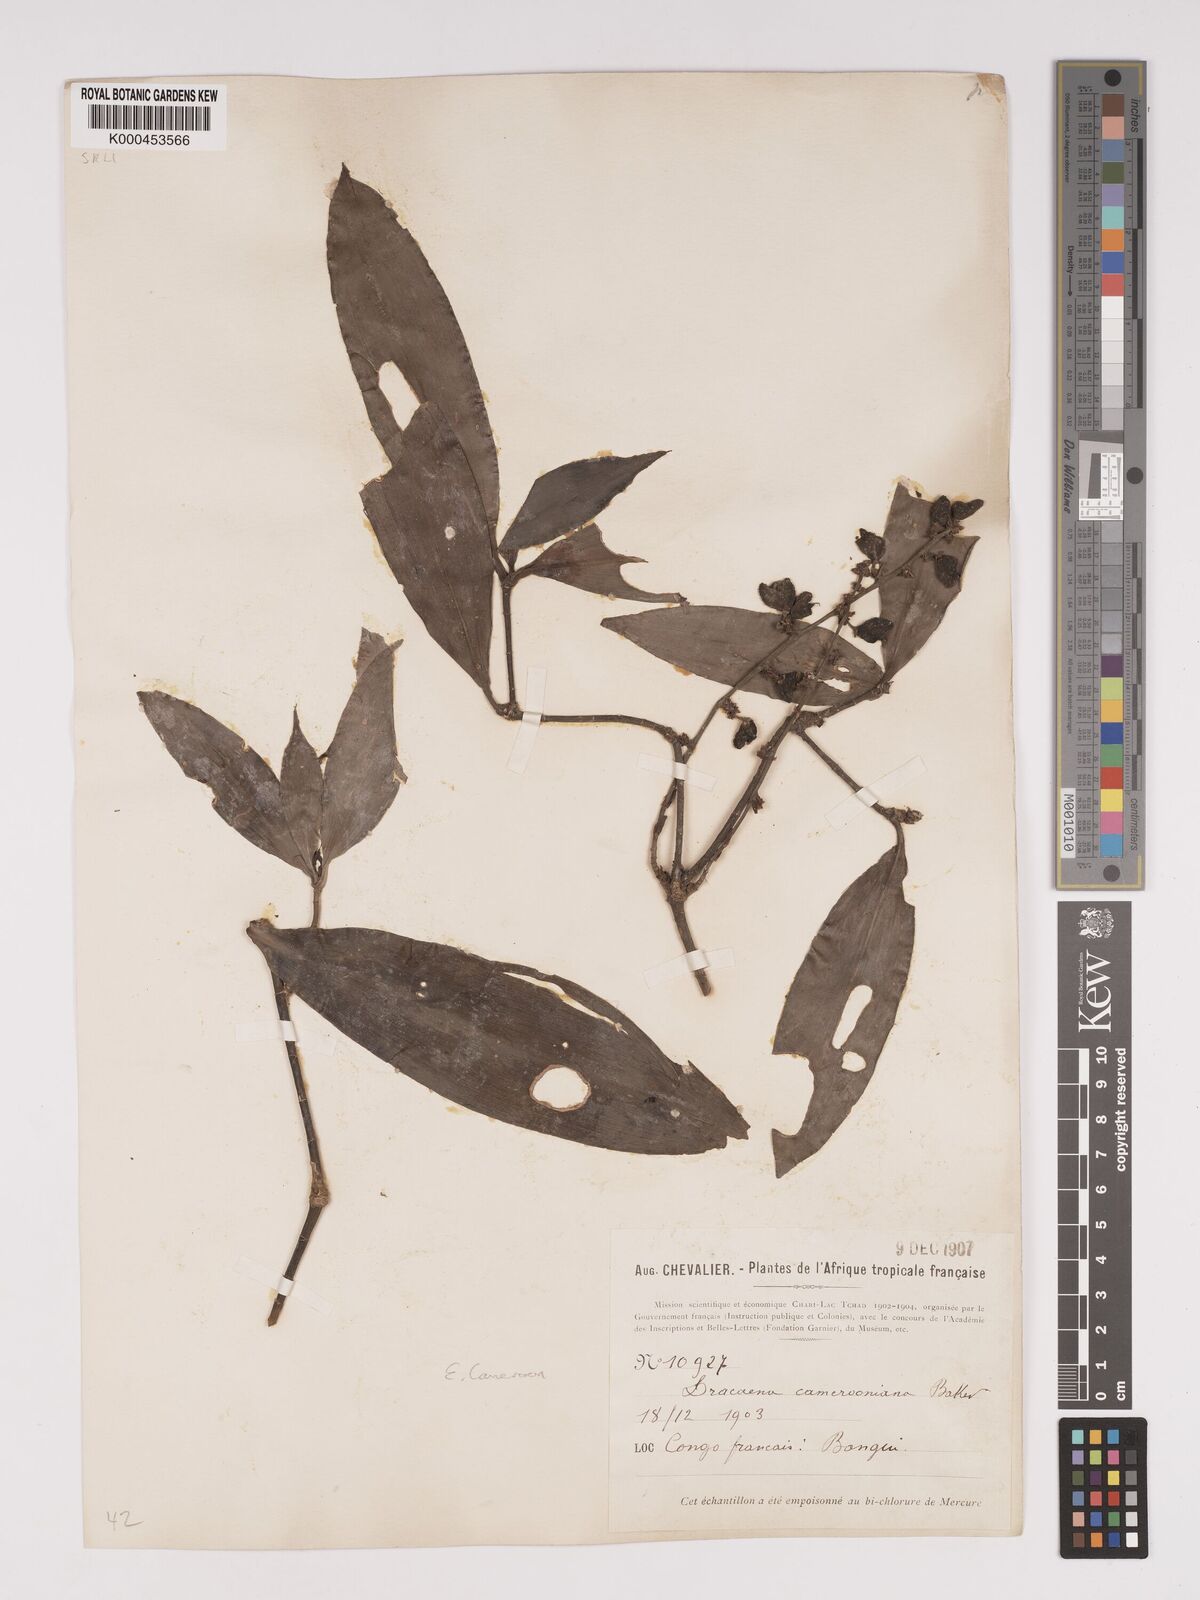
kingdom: Plantae
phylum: Tracheophyta
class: Liliopsida
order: Asparagales
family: Asparagaceae
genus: Dracaena
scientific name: Dracaena camerooniana
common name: Dragon tree
